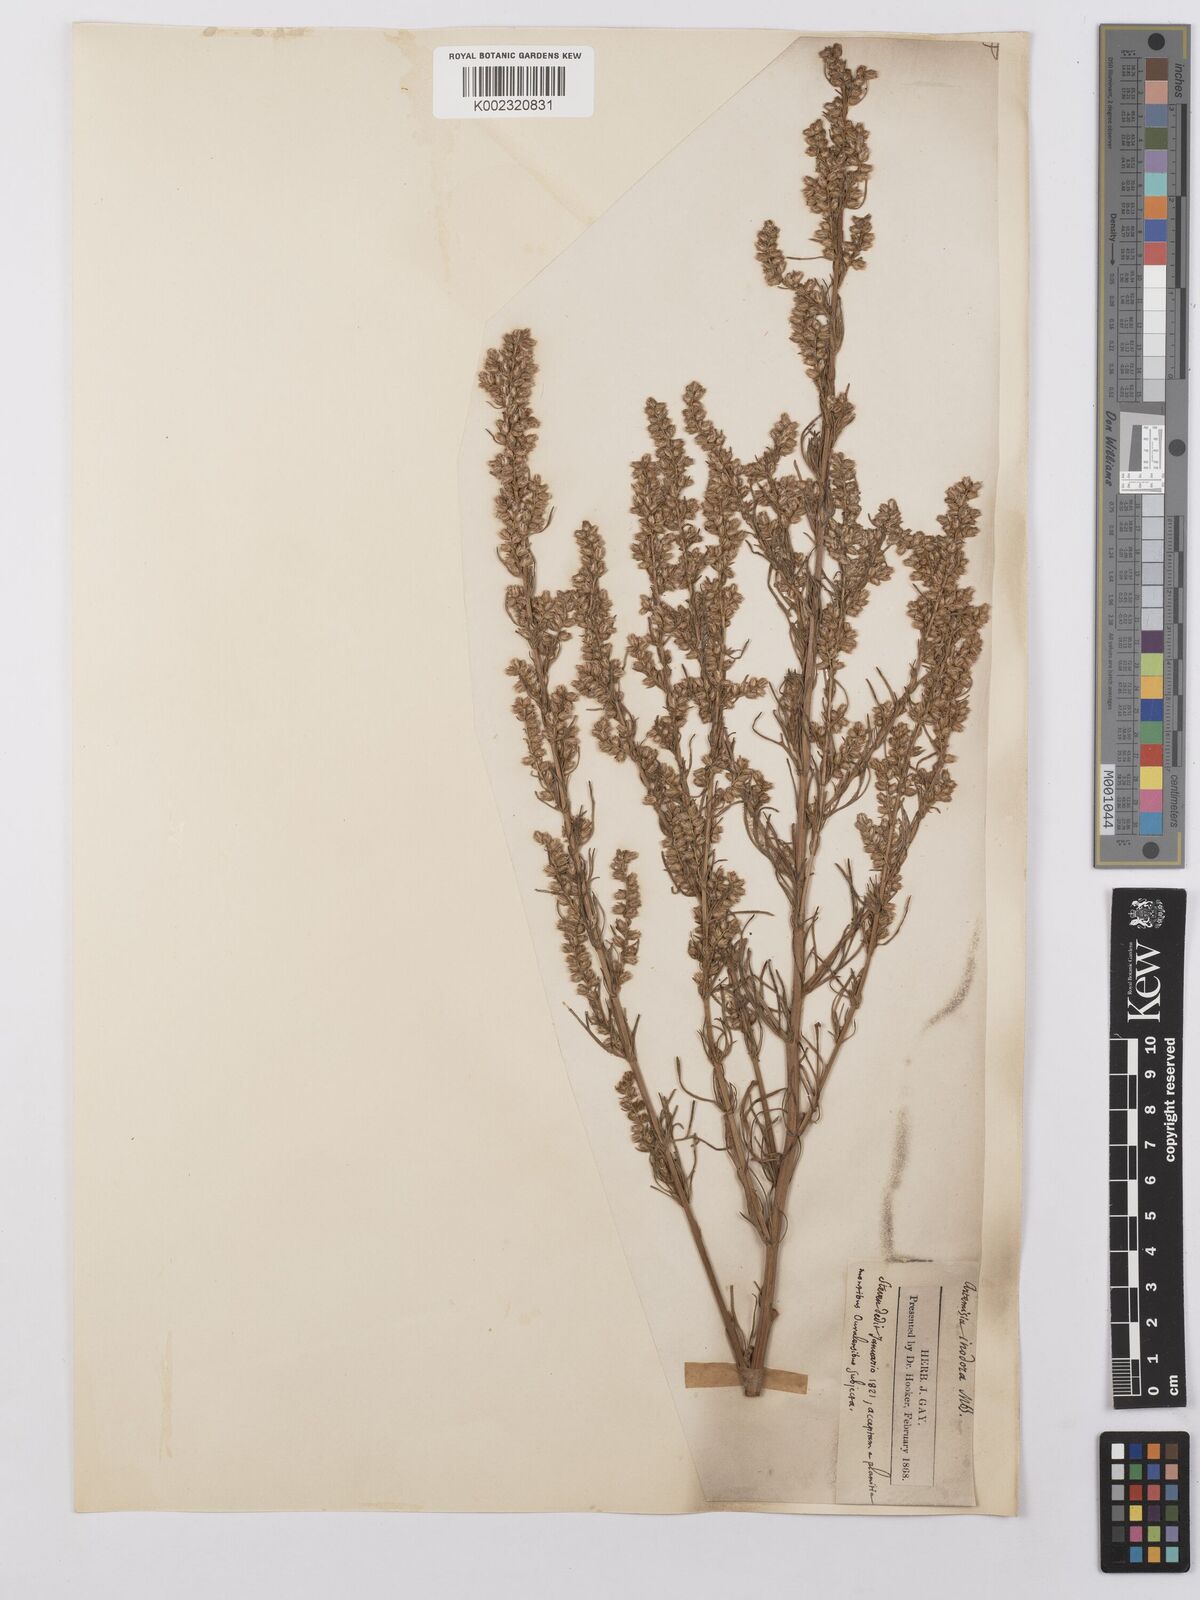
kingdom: Plantae
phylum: Tracheophyta
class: Magnoliopsida
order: Asterales
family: Asteraceae
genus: Artemisia
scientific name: Artemisia marschalliana
